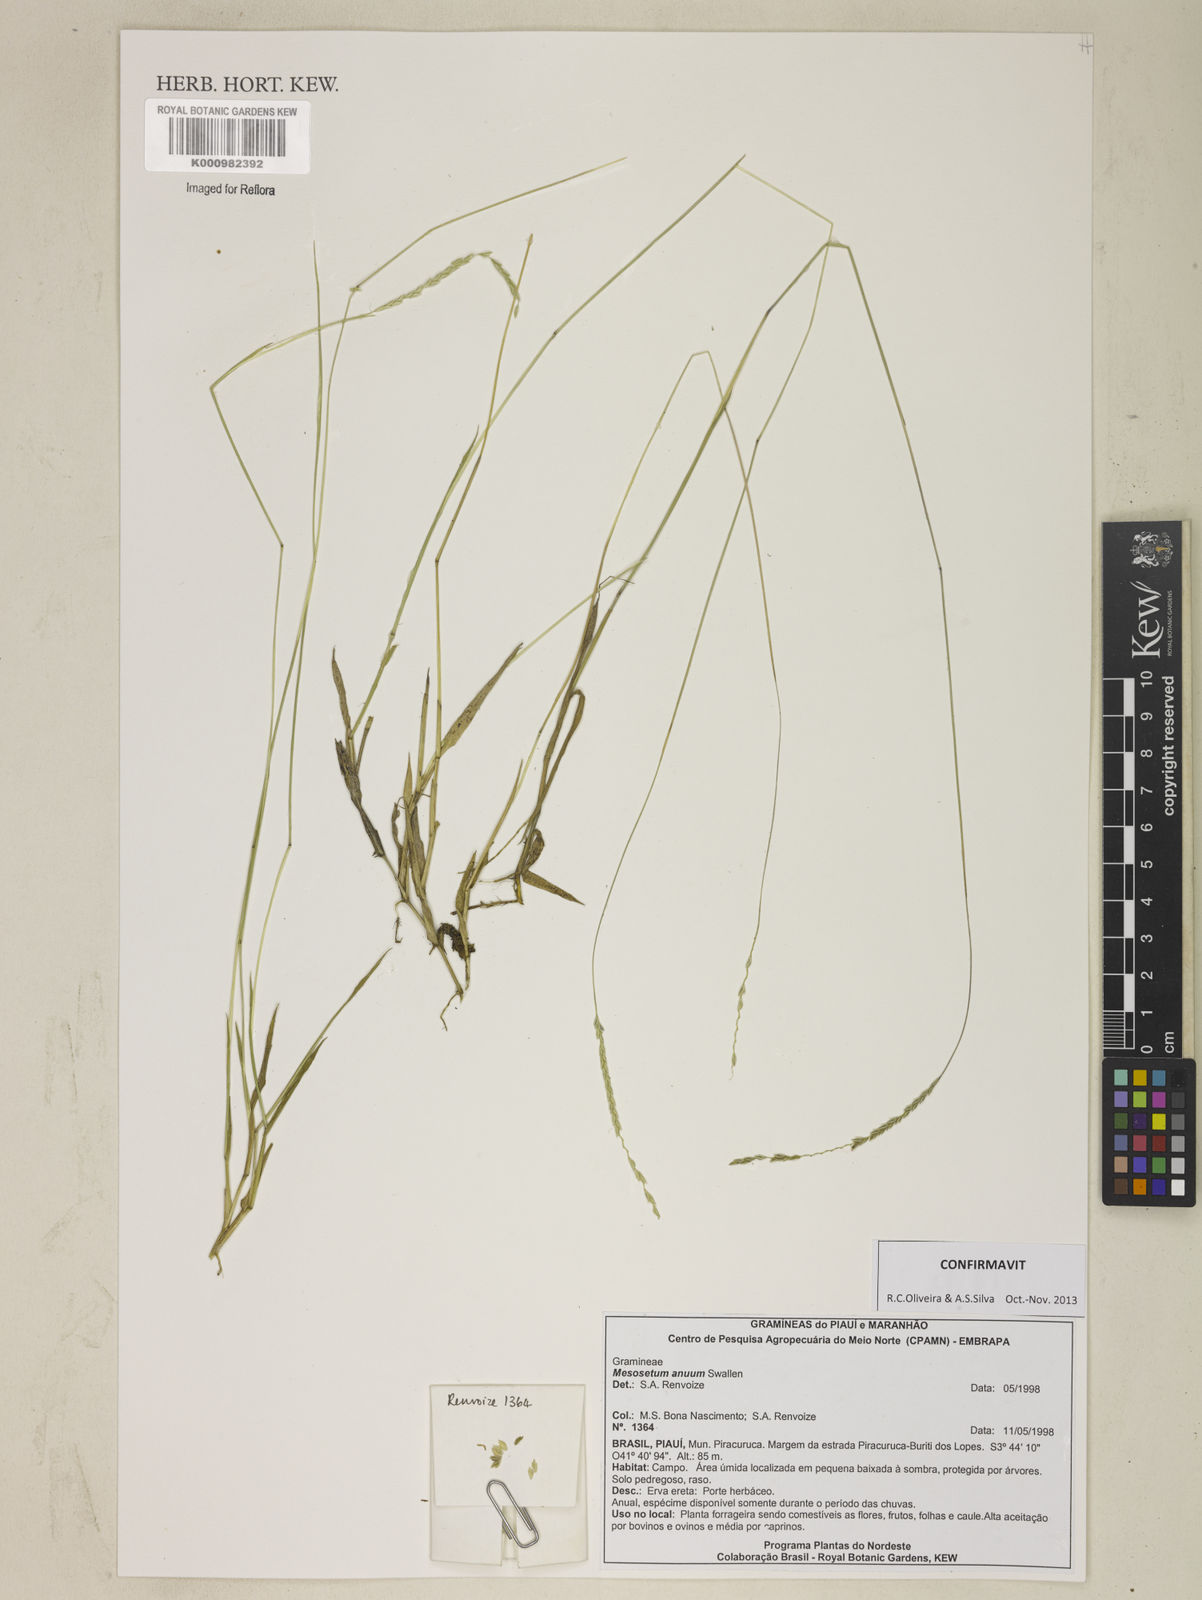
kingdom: Plantae
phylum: Tracheophyta
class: Liliopsida
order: Poales
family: Poaceae
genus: Mesosetum
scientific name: Mesosetum annuum
